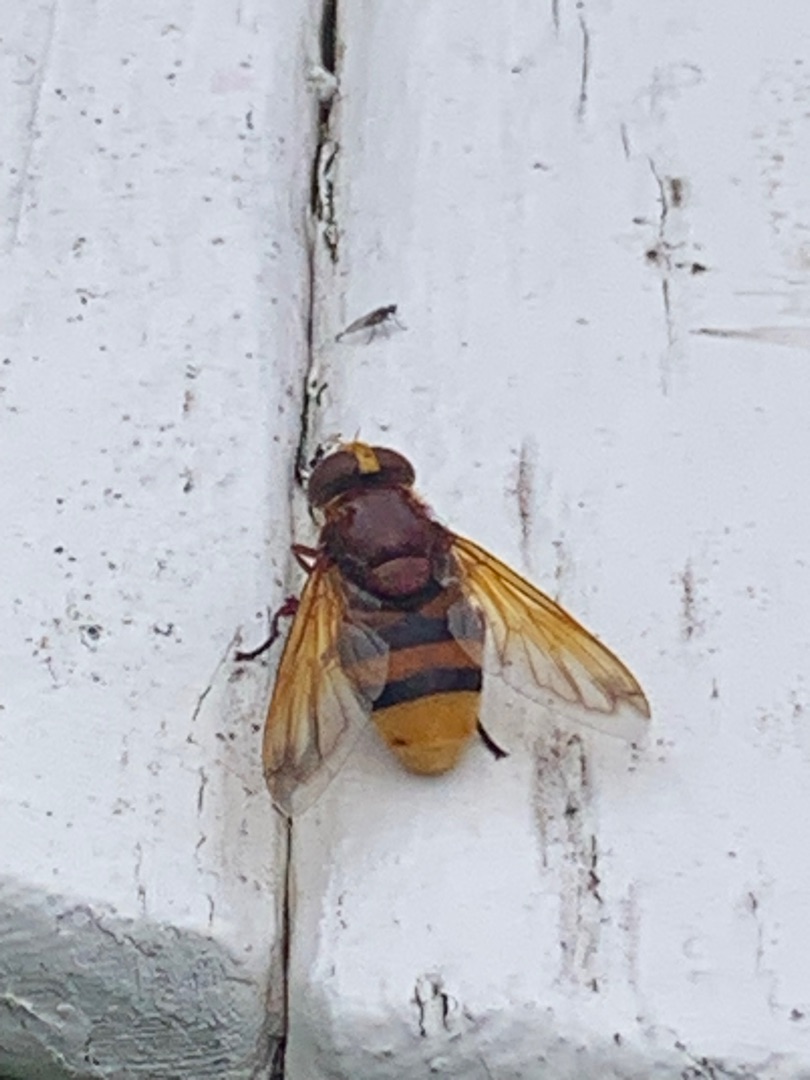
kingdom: Animalia
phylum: Arthropoda
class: Insecta
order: Diptera
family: Syrphidae
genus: Volucella
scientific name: Volucella zonaria
